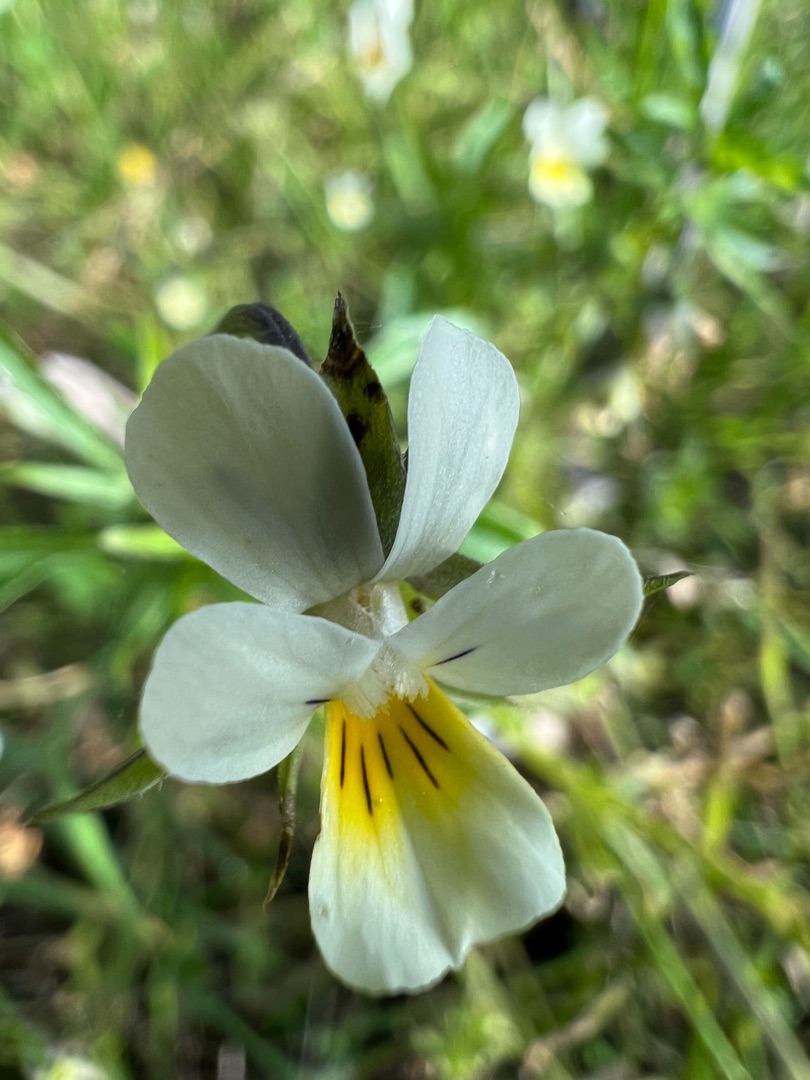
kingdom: Plantae
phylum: Tracheophyta
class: Magnoliopsida
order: Malpighiales
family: Violaceae
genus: Viola
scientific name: Viola arvensis
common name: Ager-stedmoderblomst
